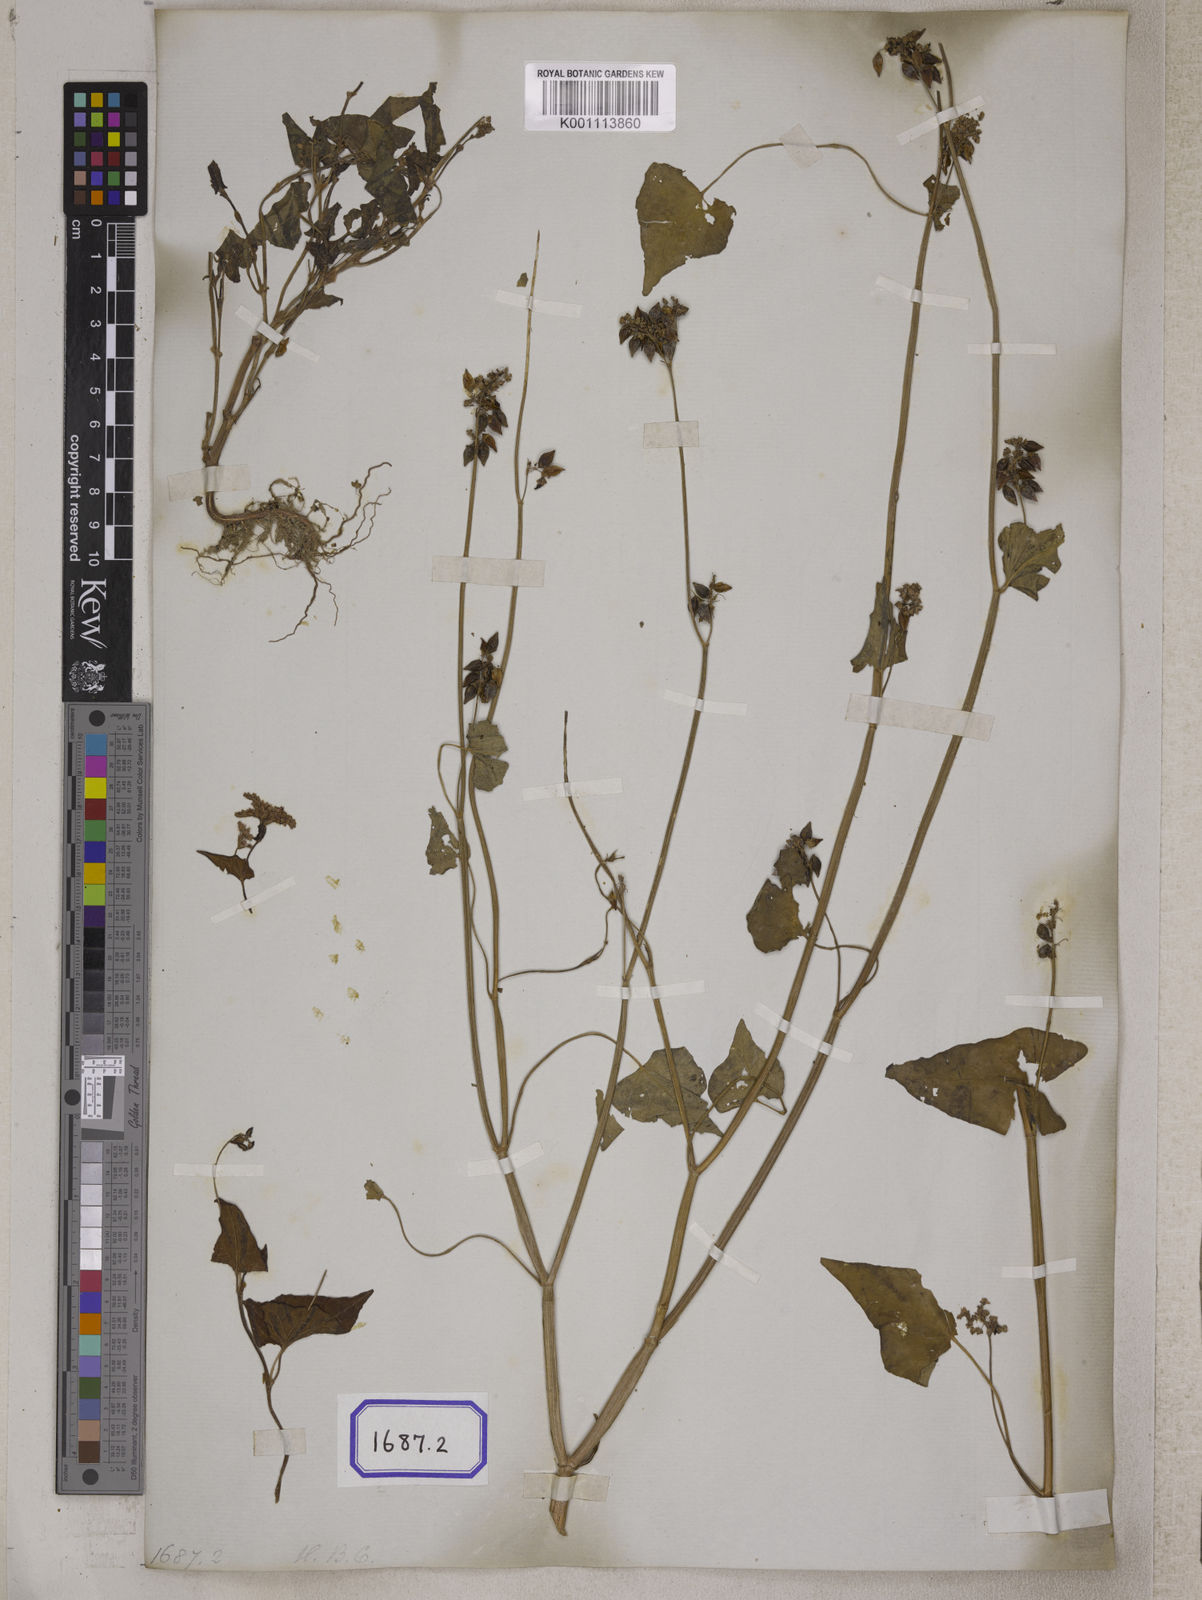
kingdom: Plantae
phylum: Tracheophyta
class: Magnoliopsida
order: Caryophyllales
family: Polygonaceae
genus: Fagopyrum
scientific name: Fagopyrum esculentum
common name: Buckwheat
